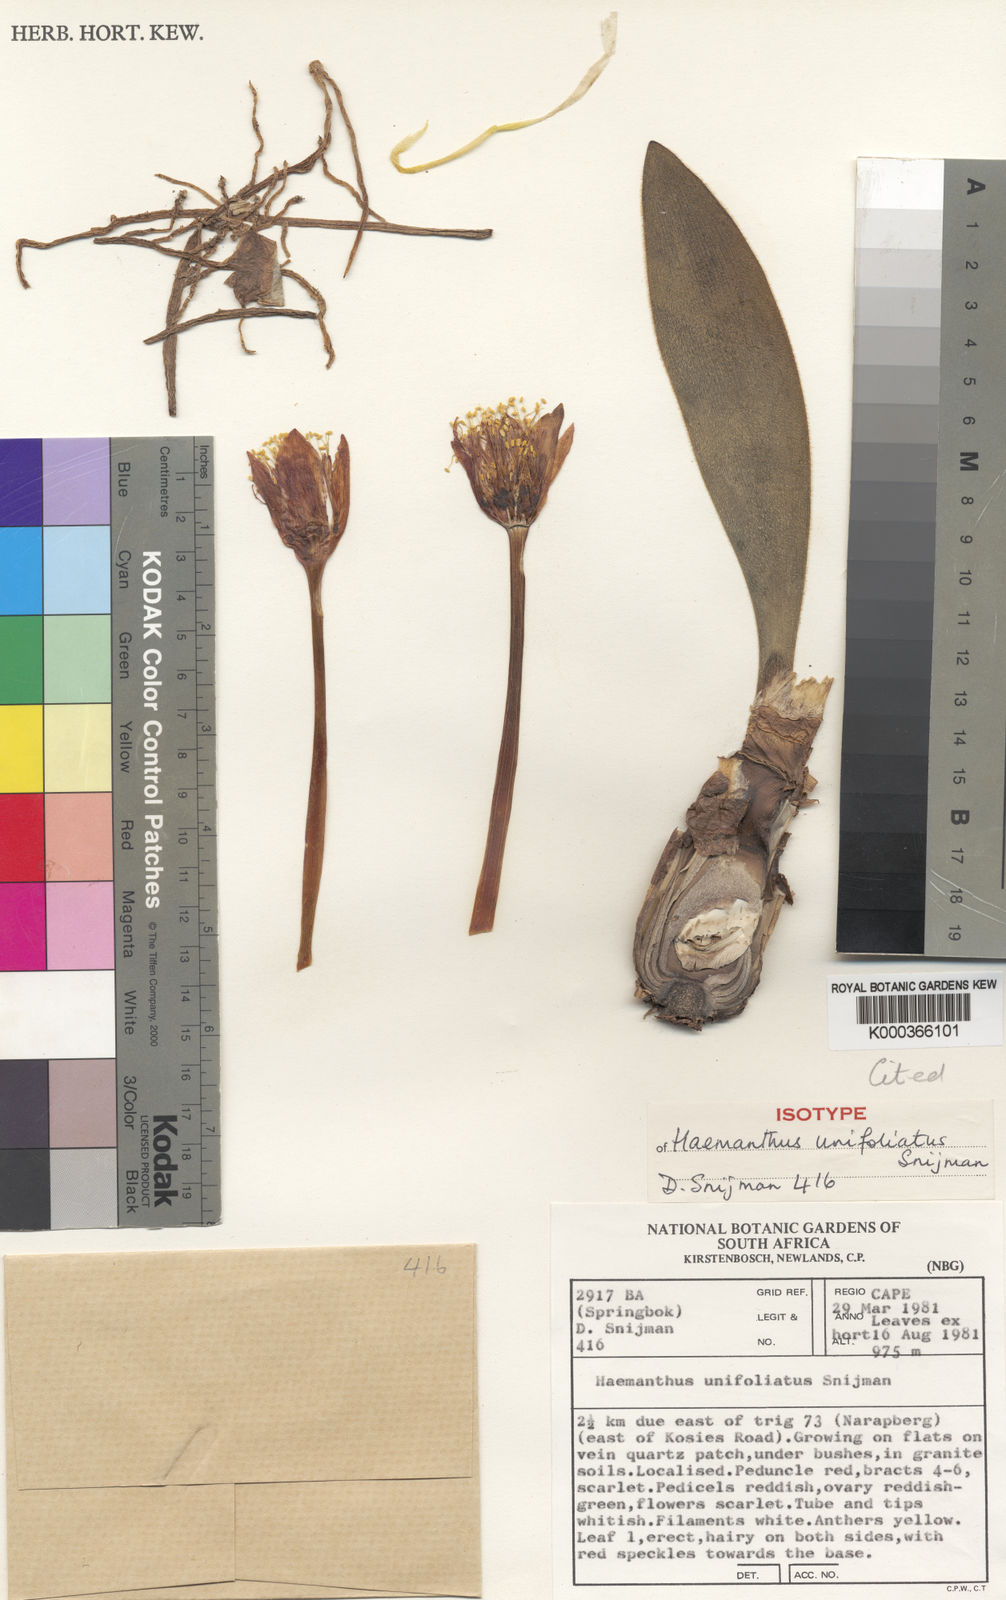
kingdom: Plantae
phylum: Tracheophyta
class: Liliopsida
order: Asparagales
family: Amaryllidaceae
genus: Haemanthus
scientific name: Haemanthus unifoliatus
